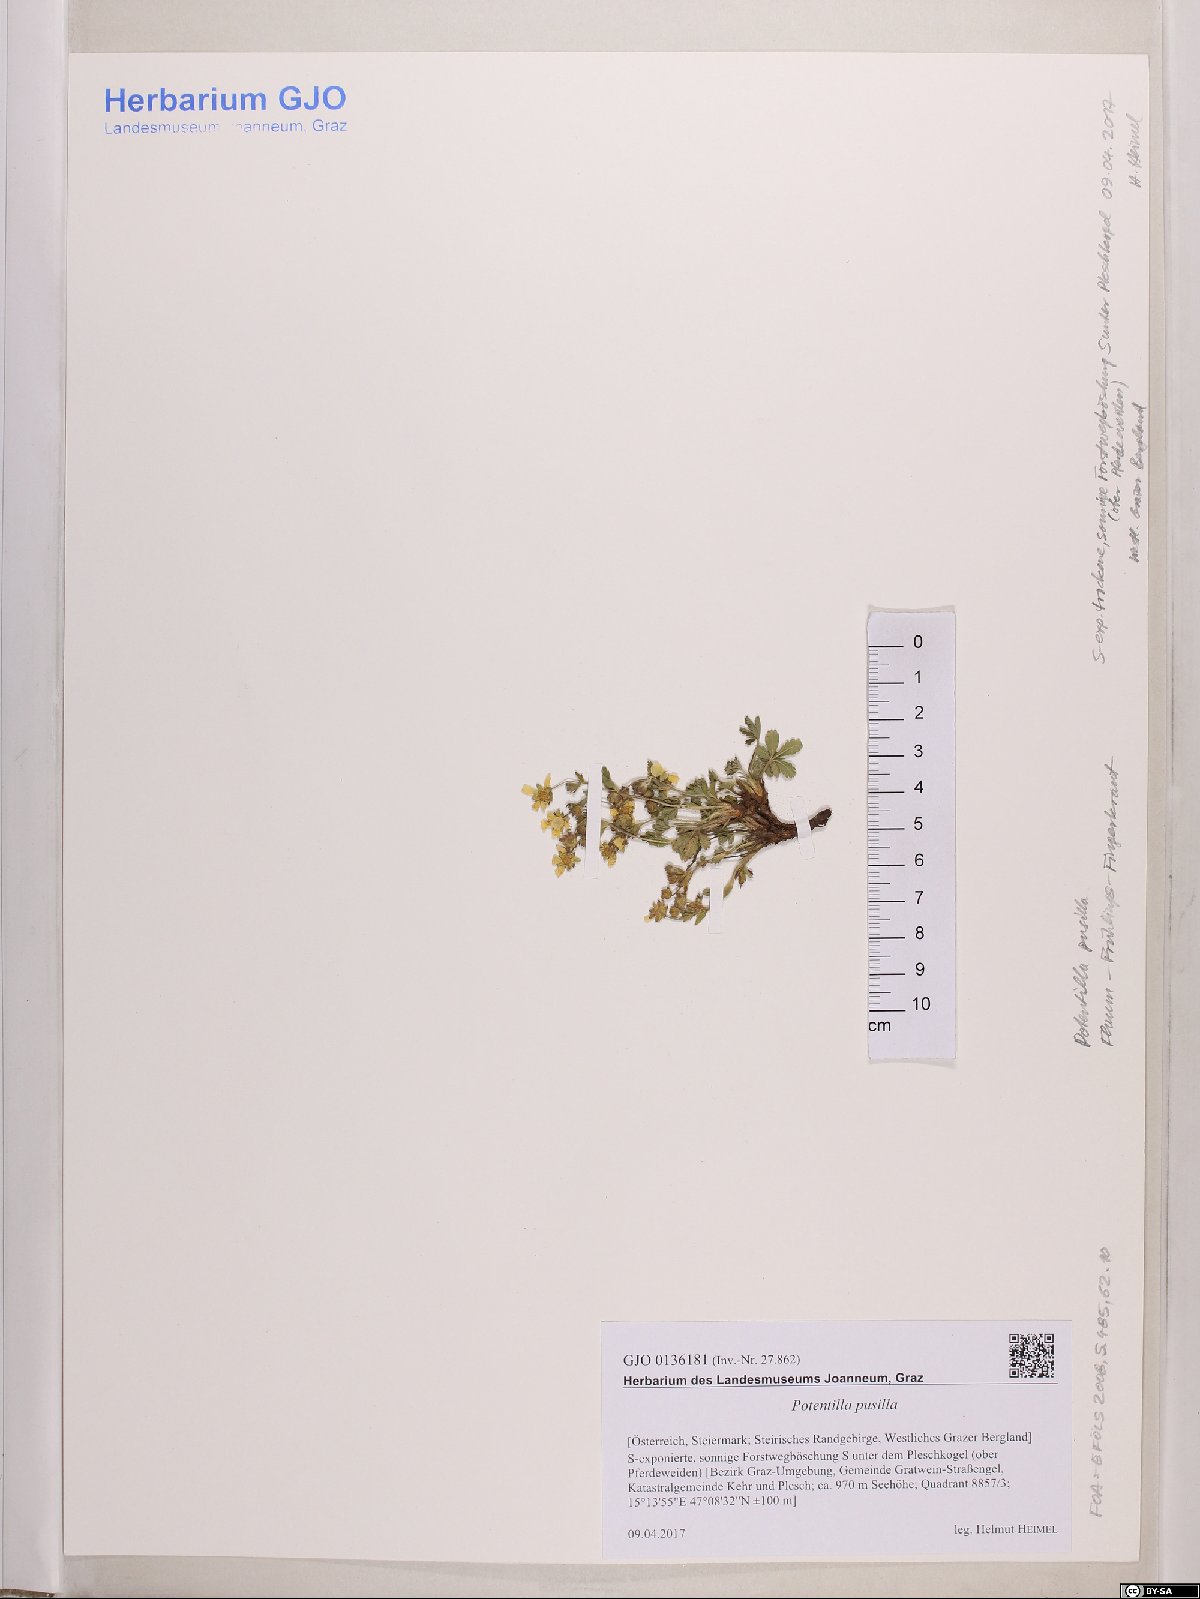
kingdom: Plantae
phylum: Tracheophyta
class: Magnoliopsida
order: Rosales
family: Rosaceae
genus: Potentilla
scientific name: Potentilla pusilla
